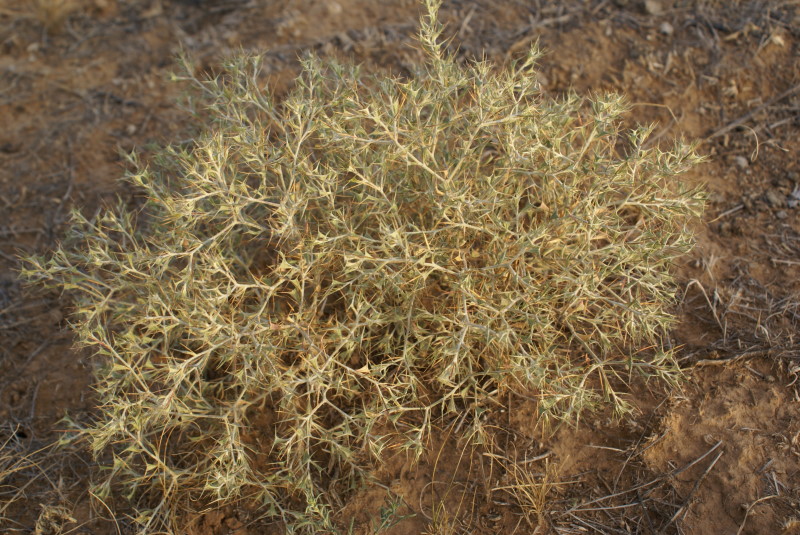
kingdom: Plantae
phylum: Tracheophyta
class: Magnoliopsida
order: Fabales
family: Fabaceae
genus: Alhagi
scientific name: Alhagi pseudalhagi
